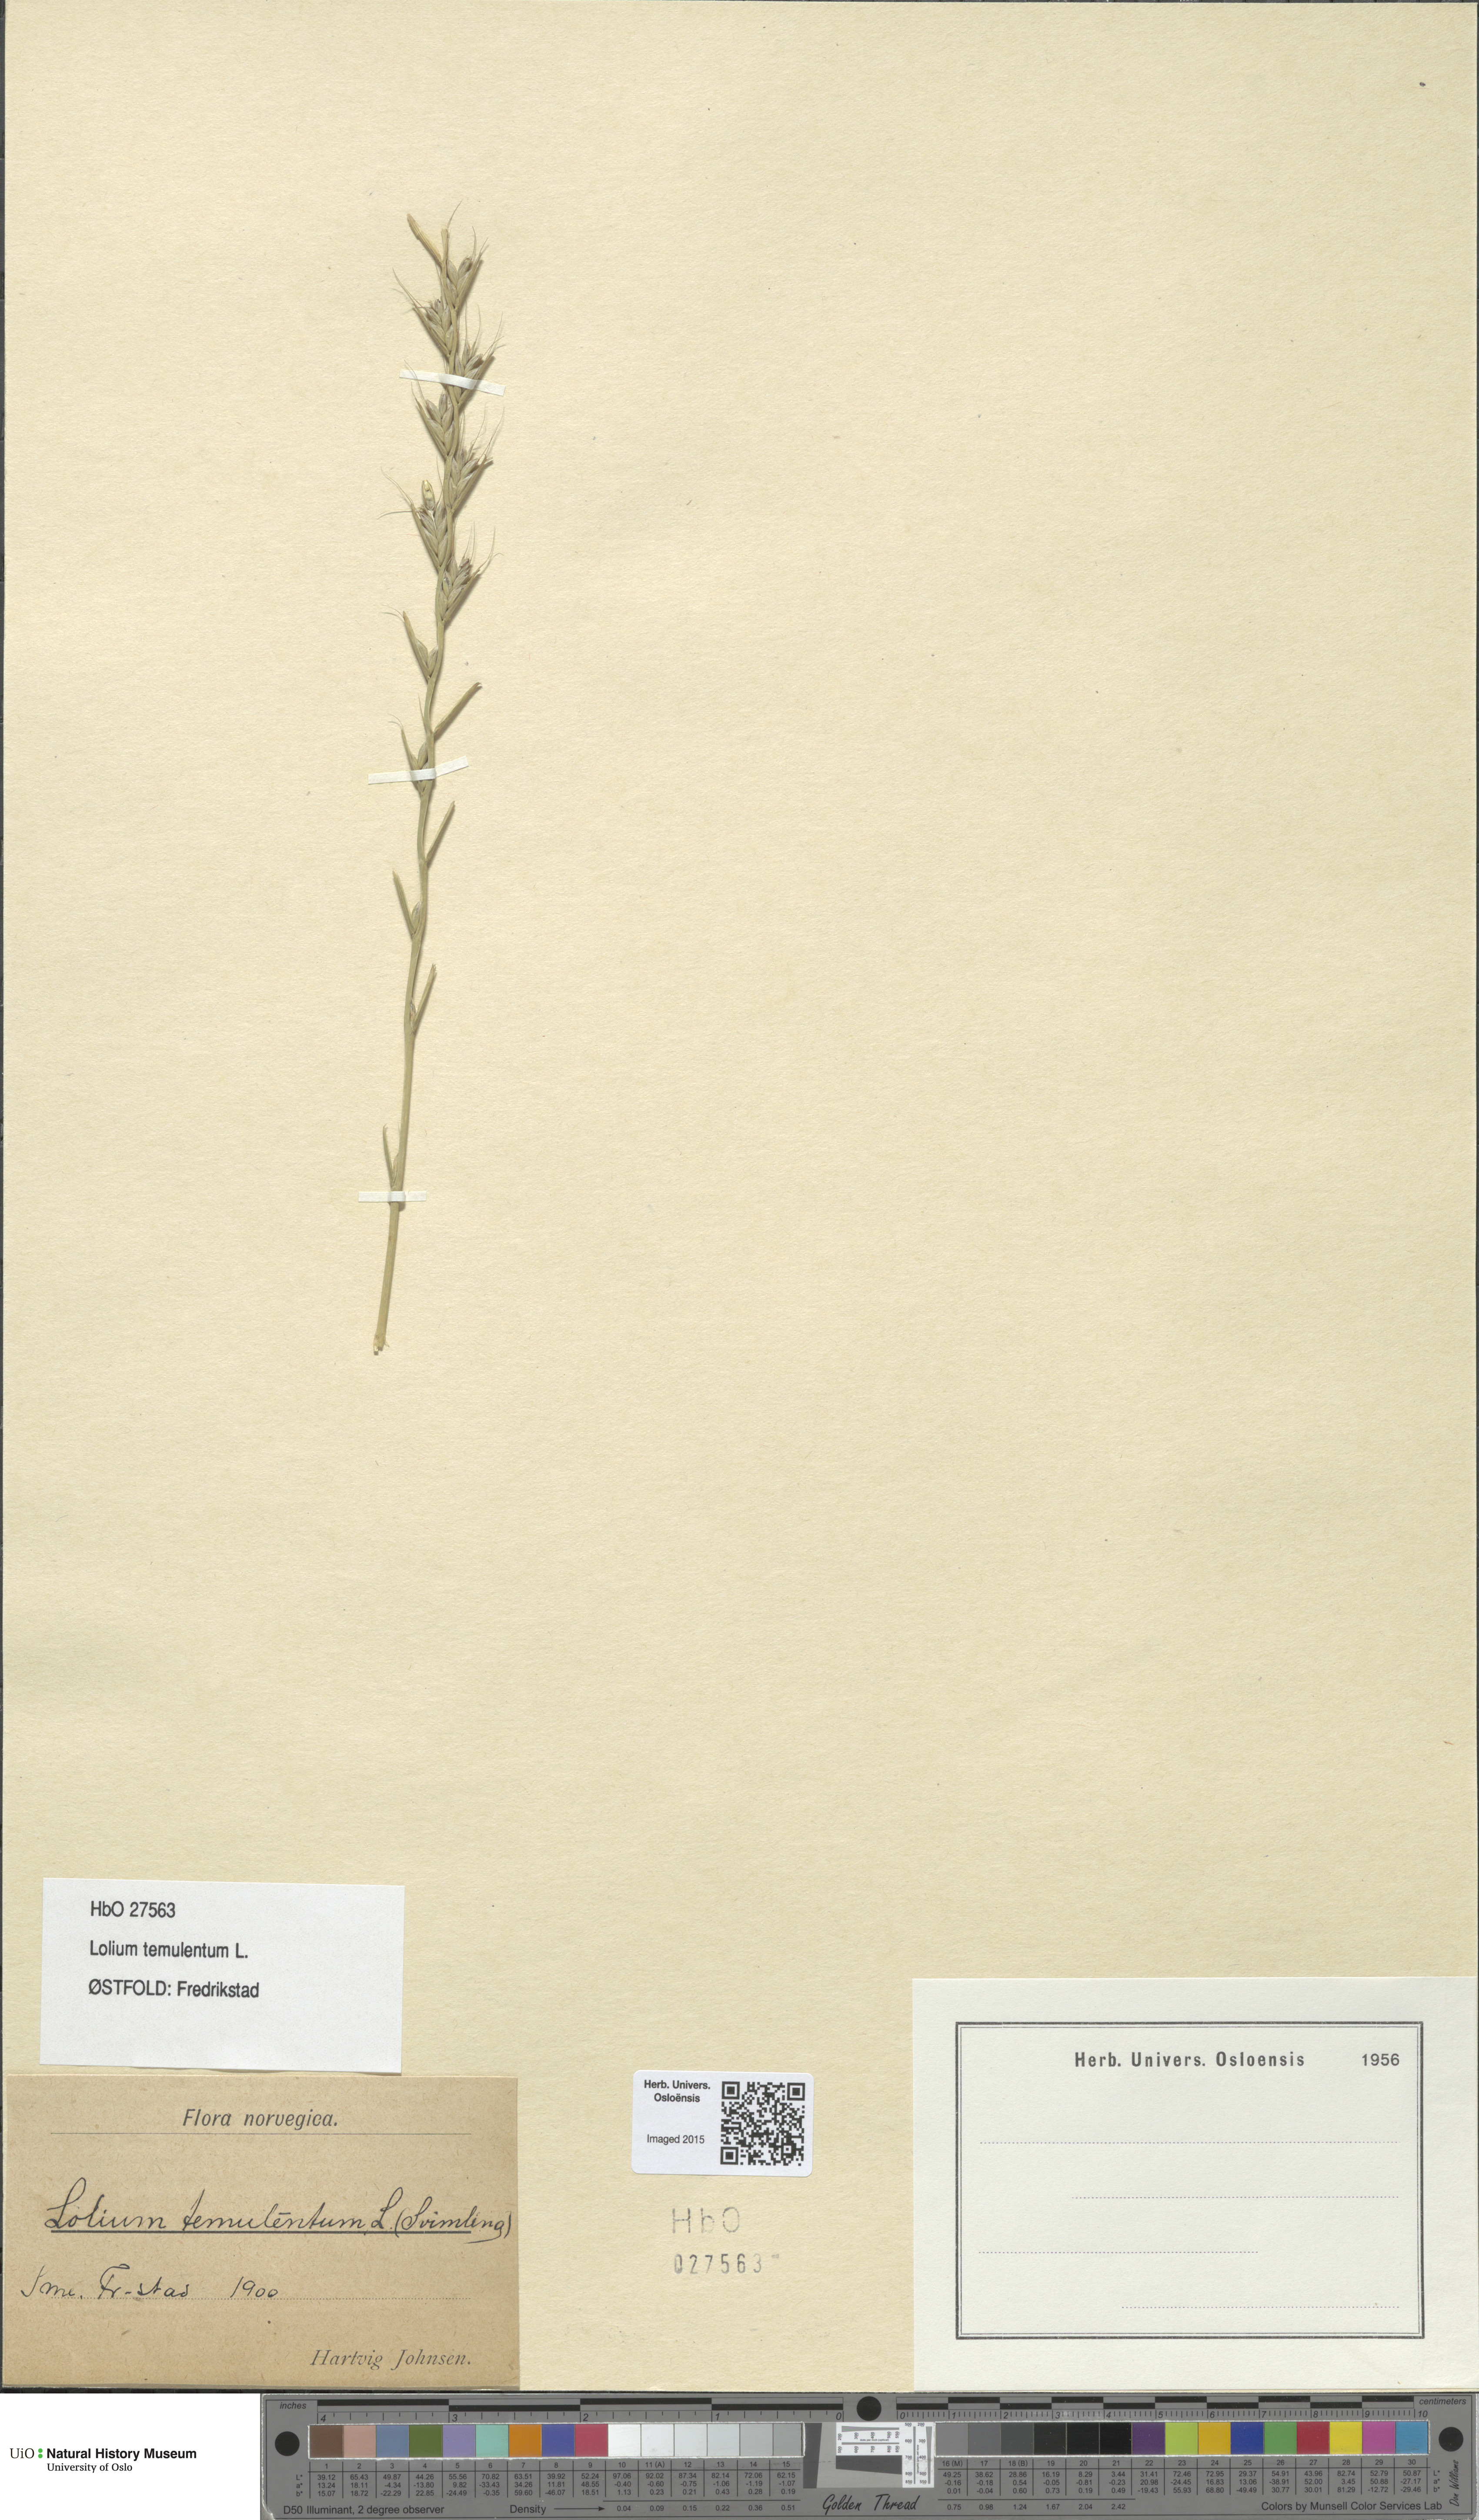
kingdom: Plantae
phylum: Tracheophyta
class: Liliopsida
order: Poales
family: Poaceae
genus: Lolium
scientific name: Lolium temulentum
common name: Darnel
